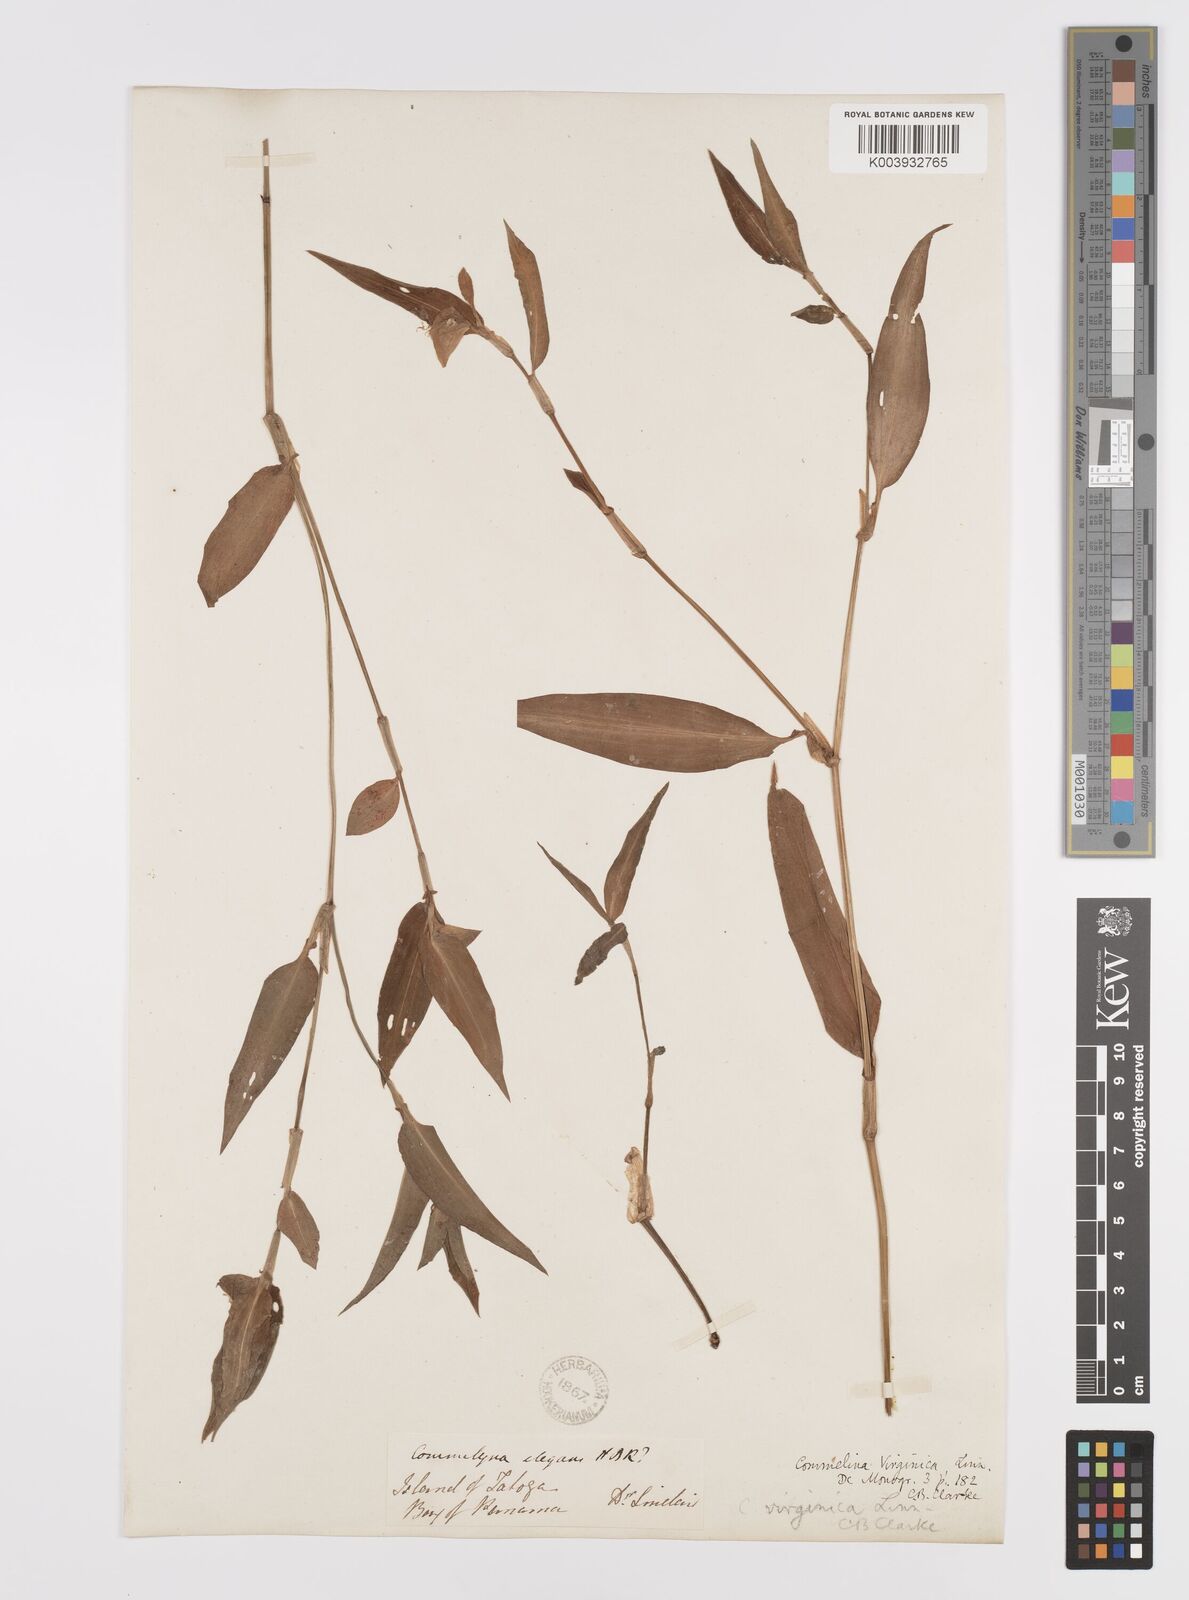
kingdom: Plantae
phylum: Tracheophyta
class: Liliopsida
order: Commelinales
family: Commelinaceae
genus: Commelina
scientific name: Commelina virginica
